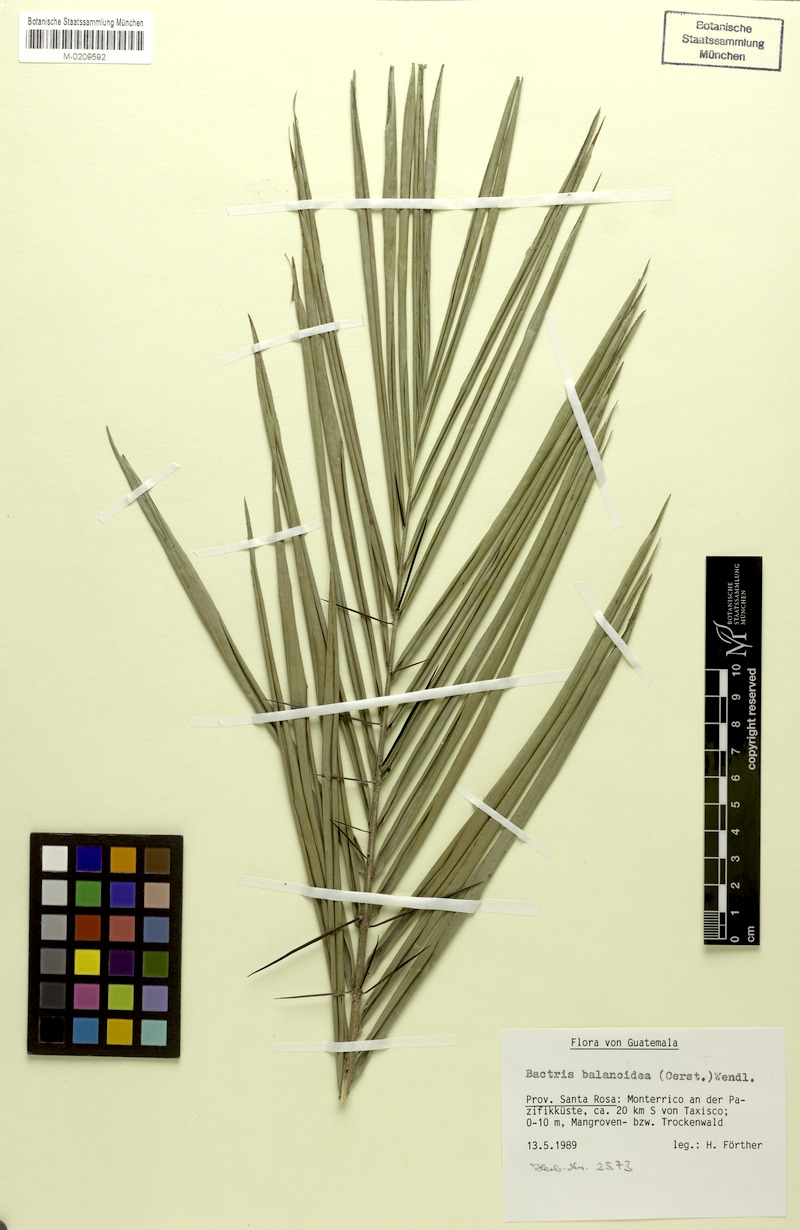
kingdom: Plantae
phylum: Tracheophyta
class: Liliopsida
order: Arecales
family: Arecaceae
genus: Bactris
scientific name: Bactris major
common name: Beach palm
